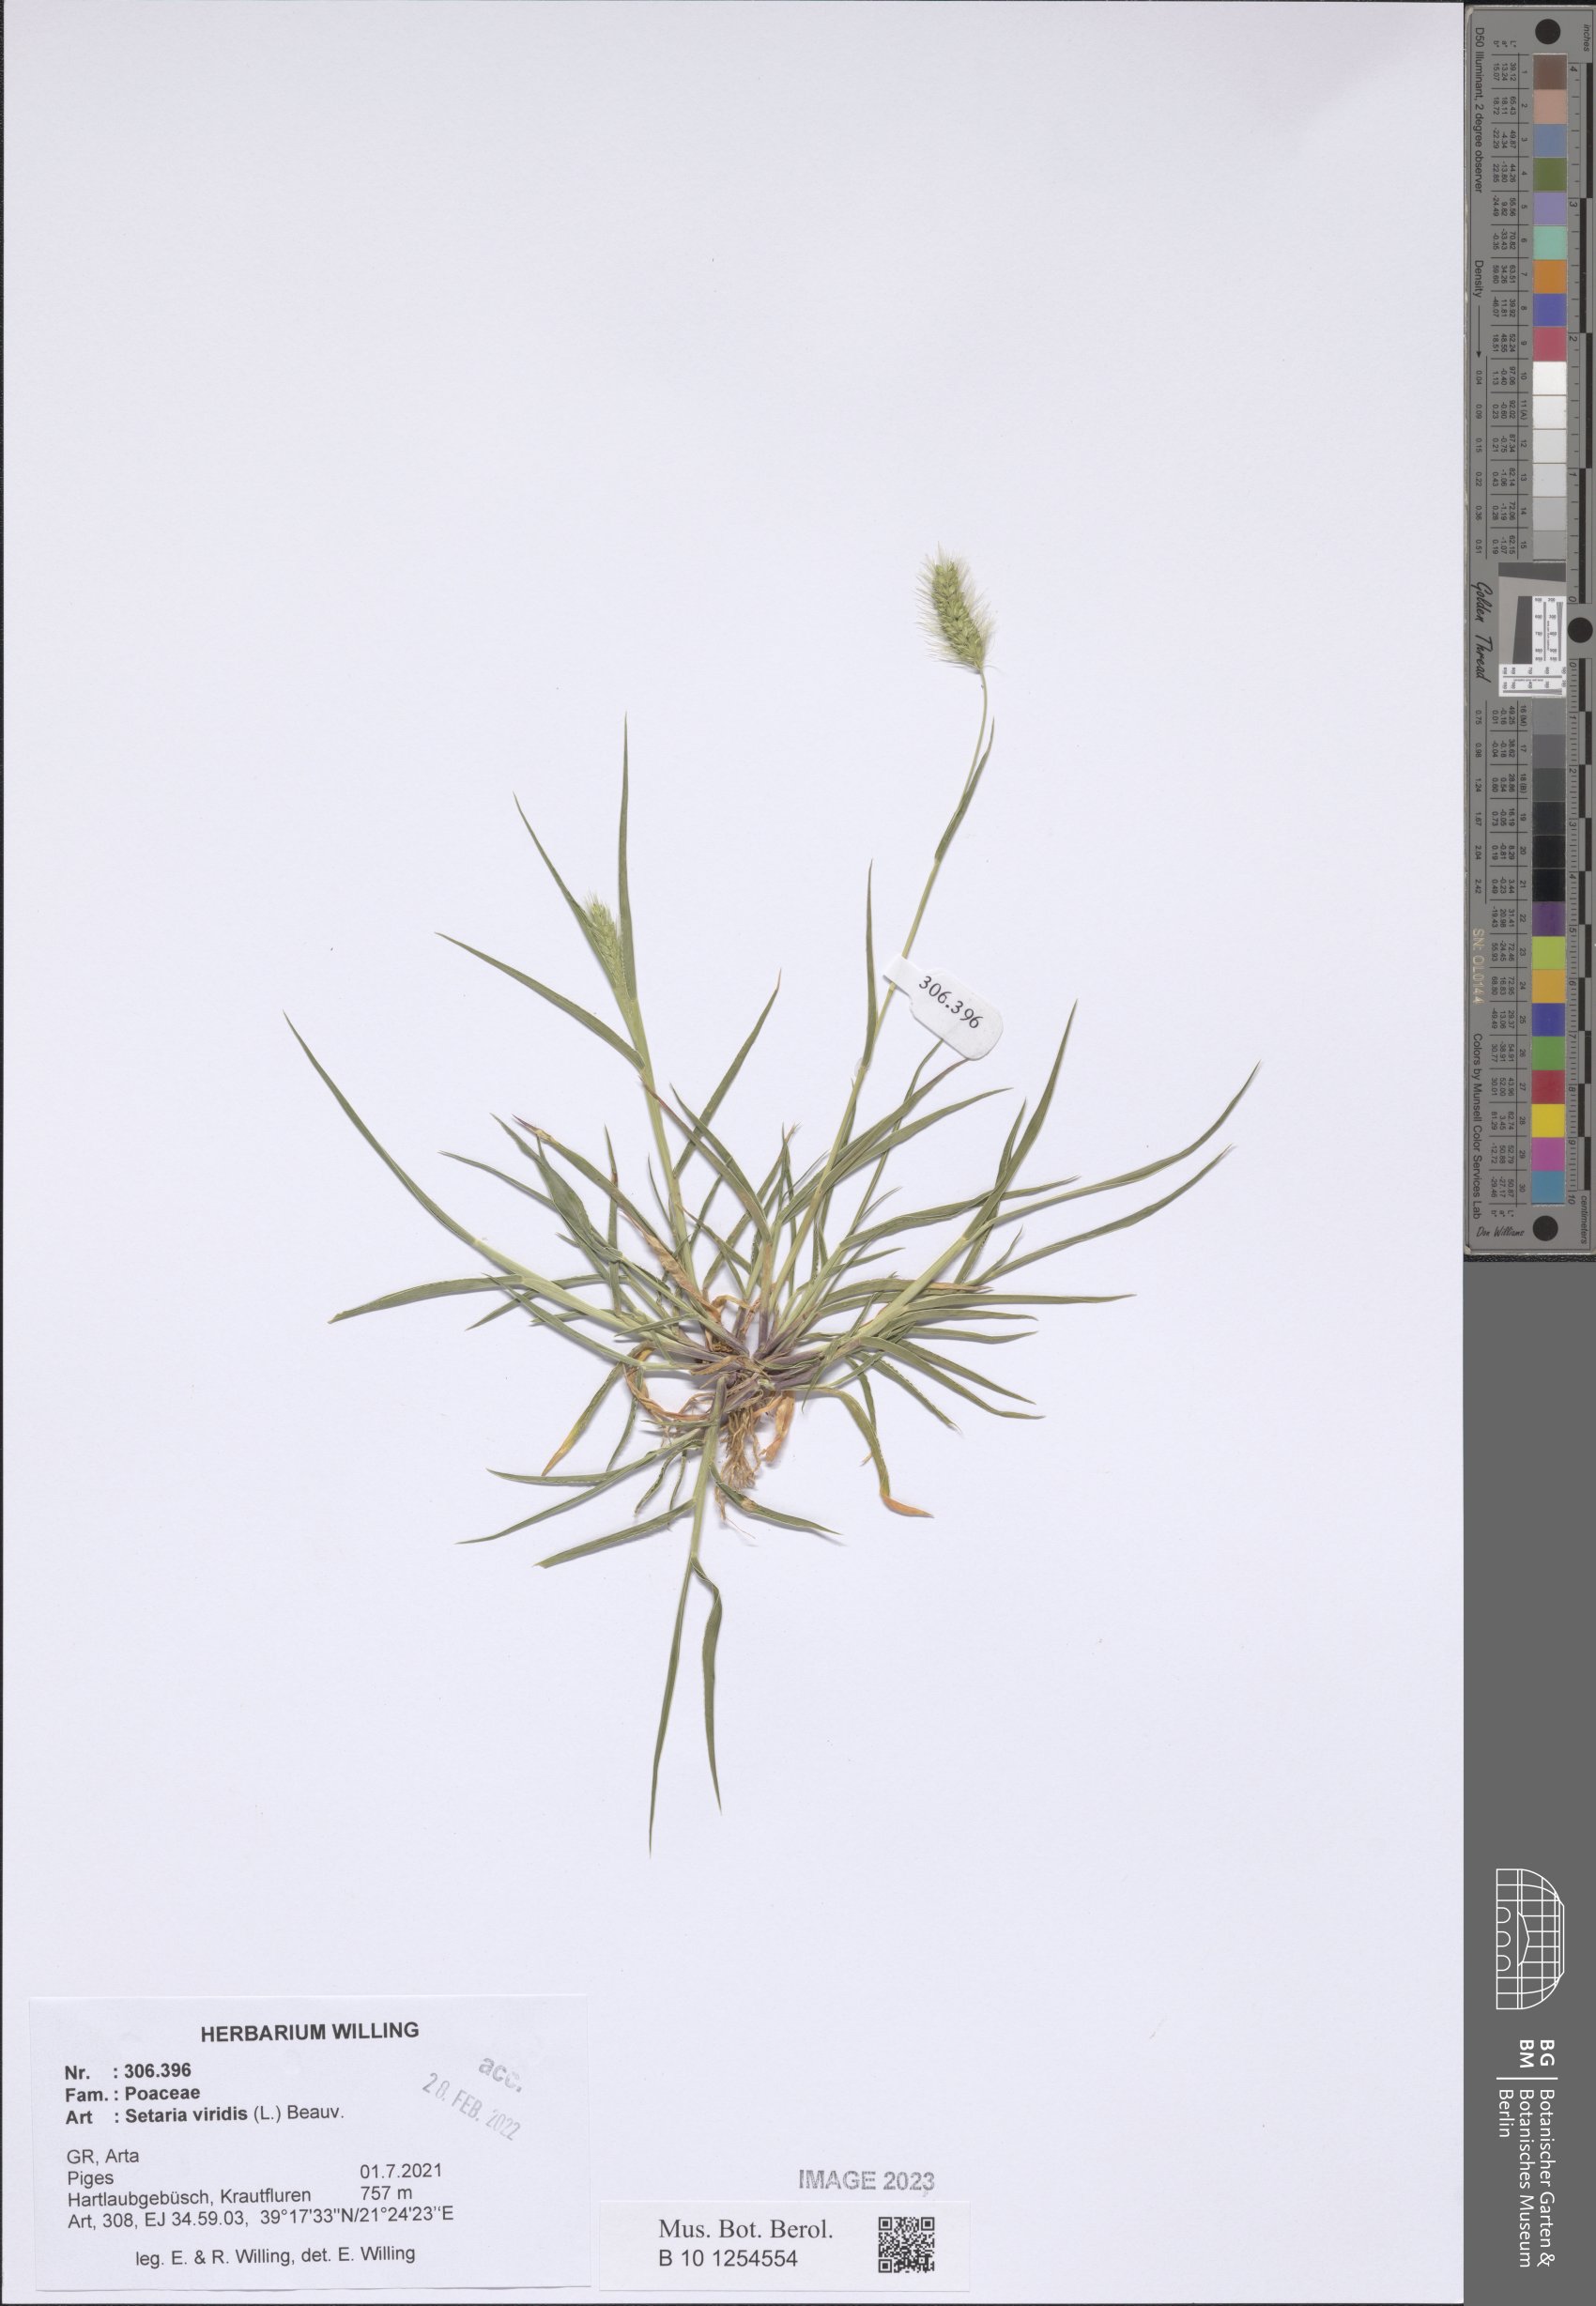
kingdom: Plantae
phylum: Tracheophyta
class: Liliopsida
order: Poales
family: Poaceae
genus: Setaria
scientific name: Setaria viridis
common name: Green bristlegrass
